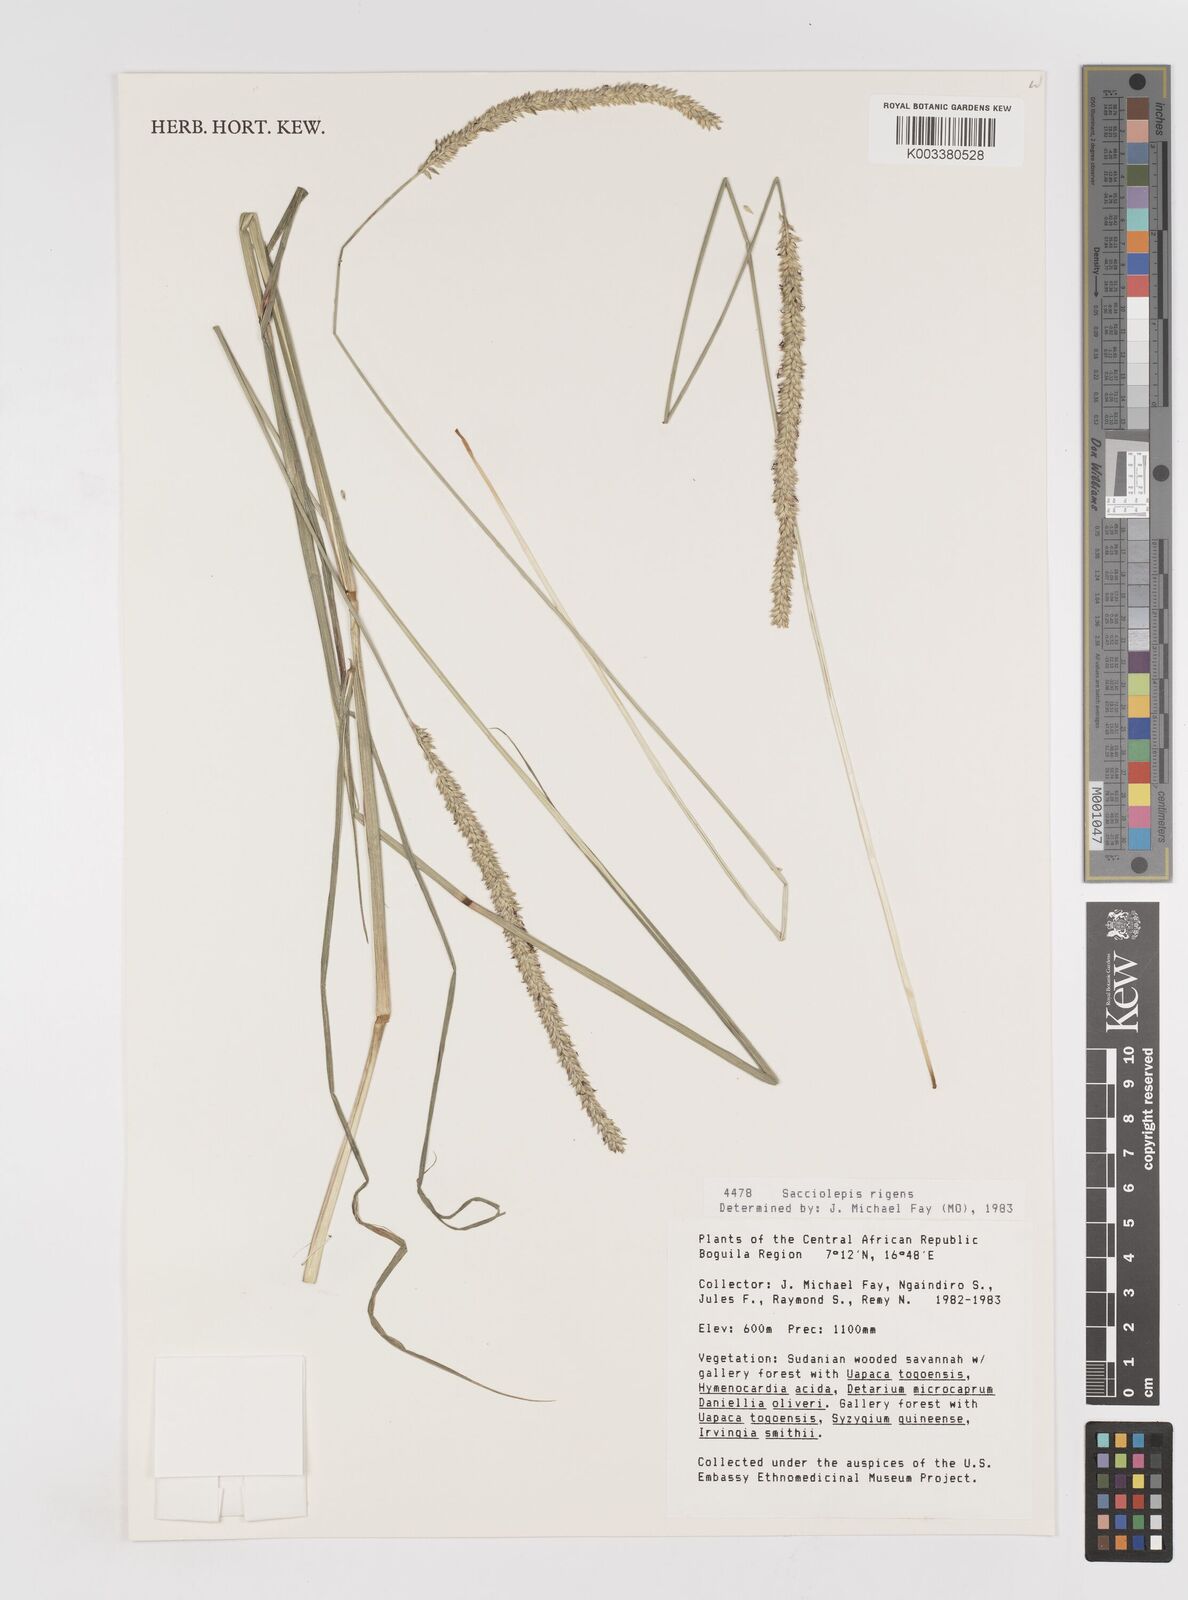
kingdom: Plantae
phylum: Tracheophyta
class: Liliopsida
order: Poales
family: Poaceae
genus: Sacciolepis
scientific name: Sacciolepis leptorrhachis
